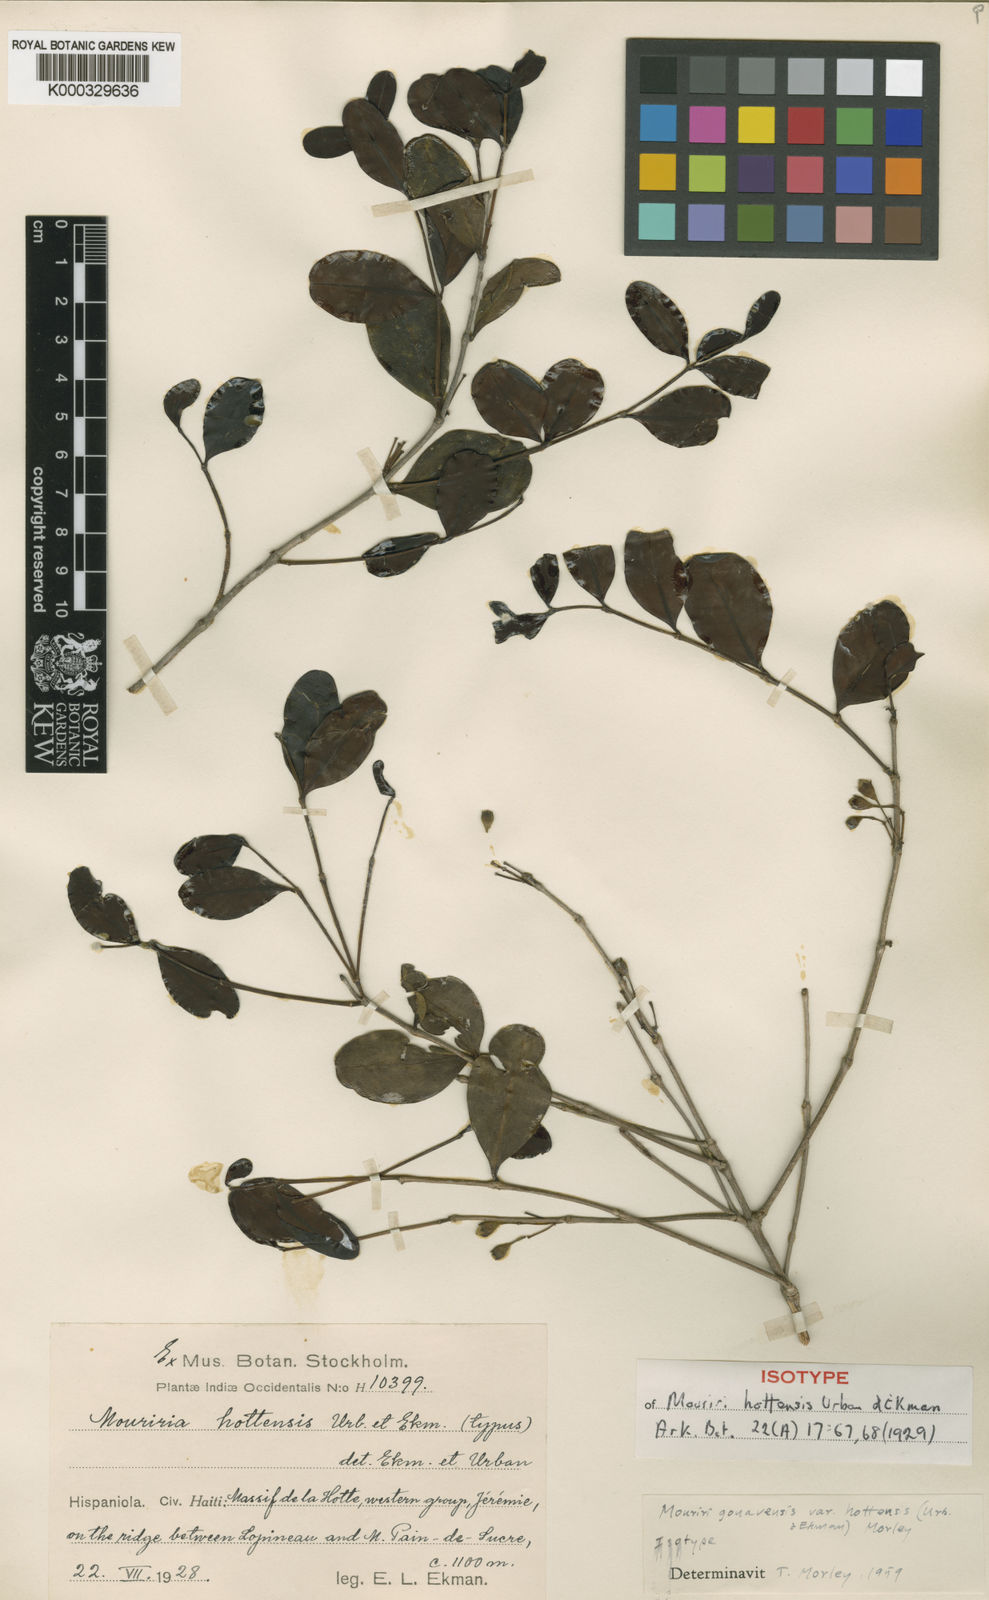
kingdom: Plantae
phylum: Tracheophyta
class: Magnoliopsida
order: Myrtales
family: Melastomataceae
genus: Mouriri
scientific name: Mouriri gonavensis
